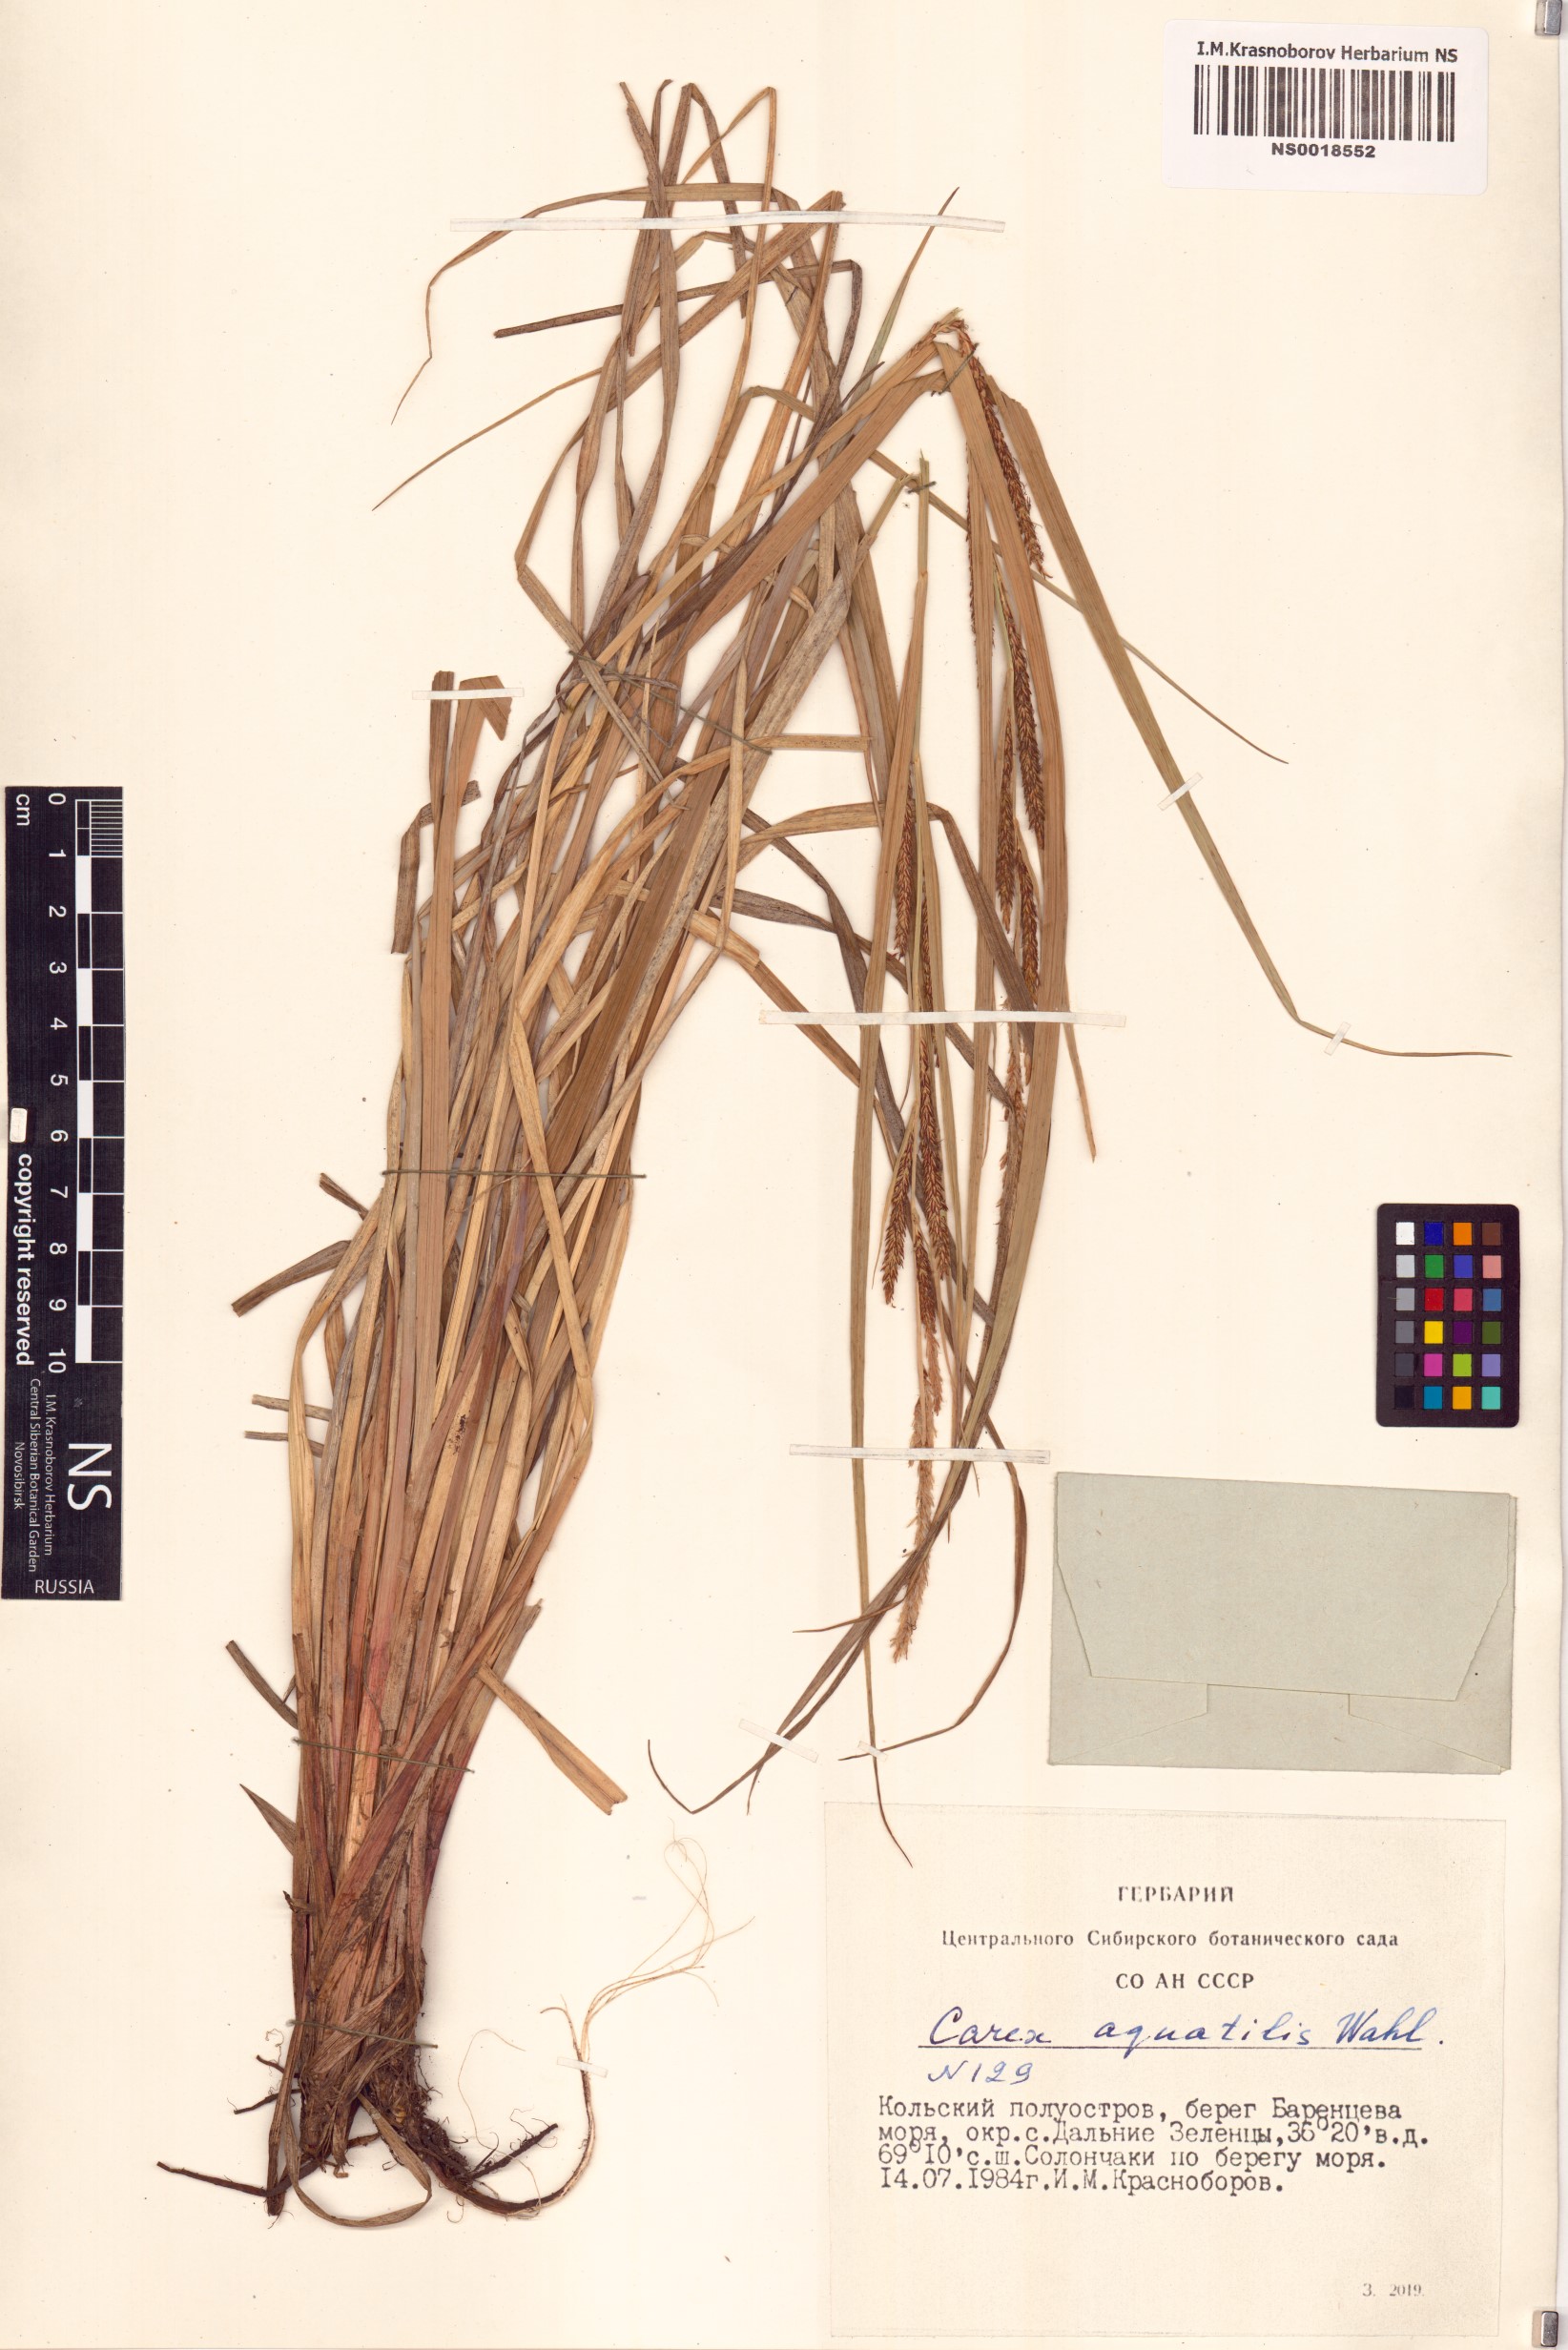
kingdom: Plantae
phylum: Tracheophyta
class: Liliopsida
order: Poales
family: Cyperaceae
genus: Carex
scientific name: Carex aquatilis
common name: Water sedge
